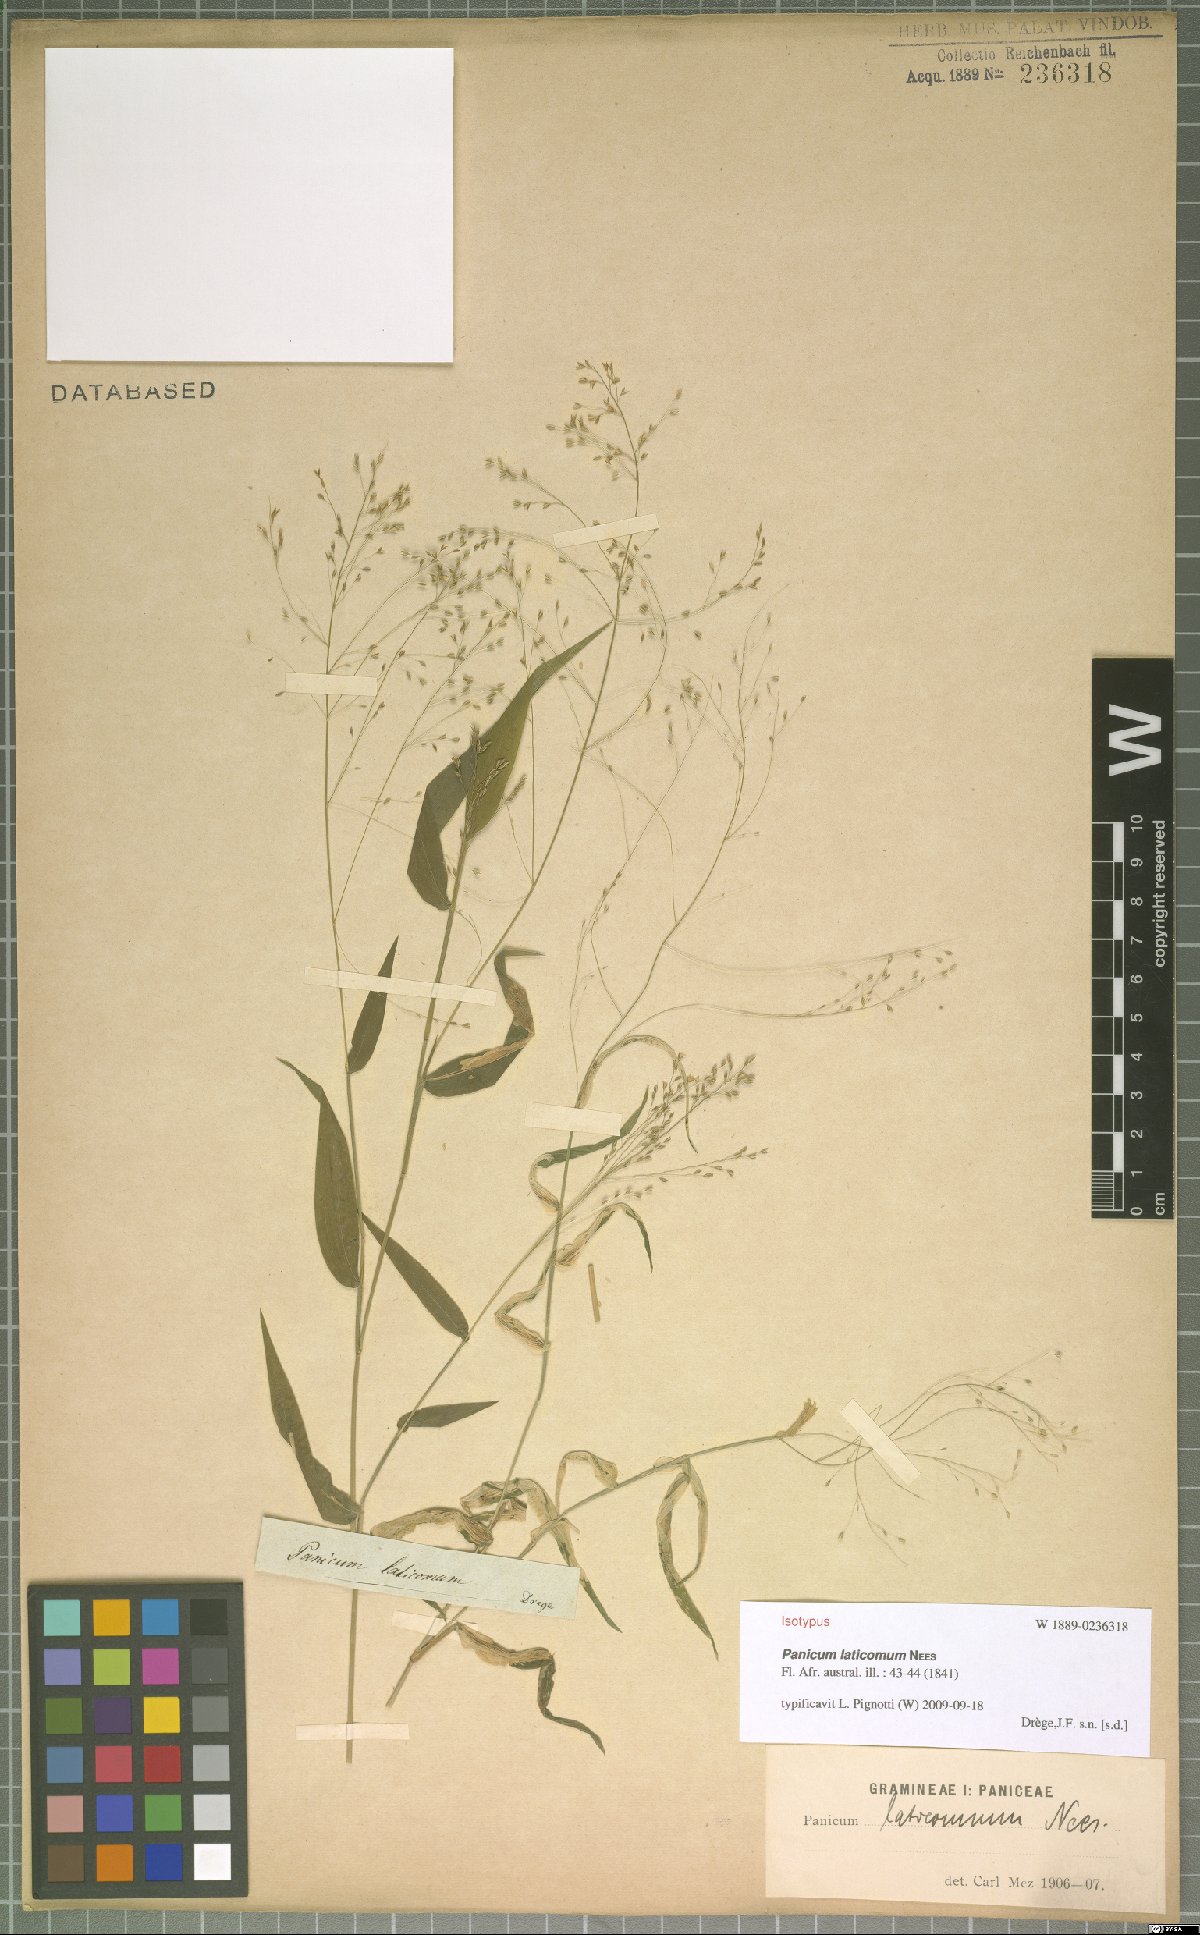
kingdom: Plantae
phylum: Tracheophyta
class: Liliopsida
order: Poales
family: Poaceae
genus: Panicum
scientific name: Panicum laticomum
